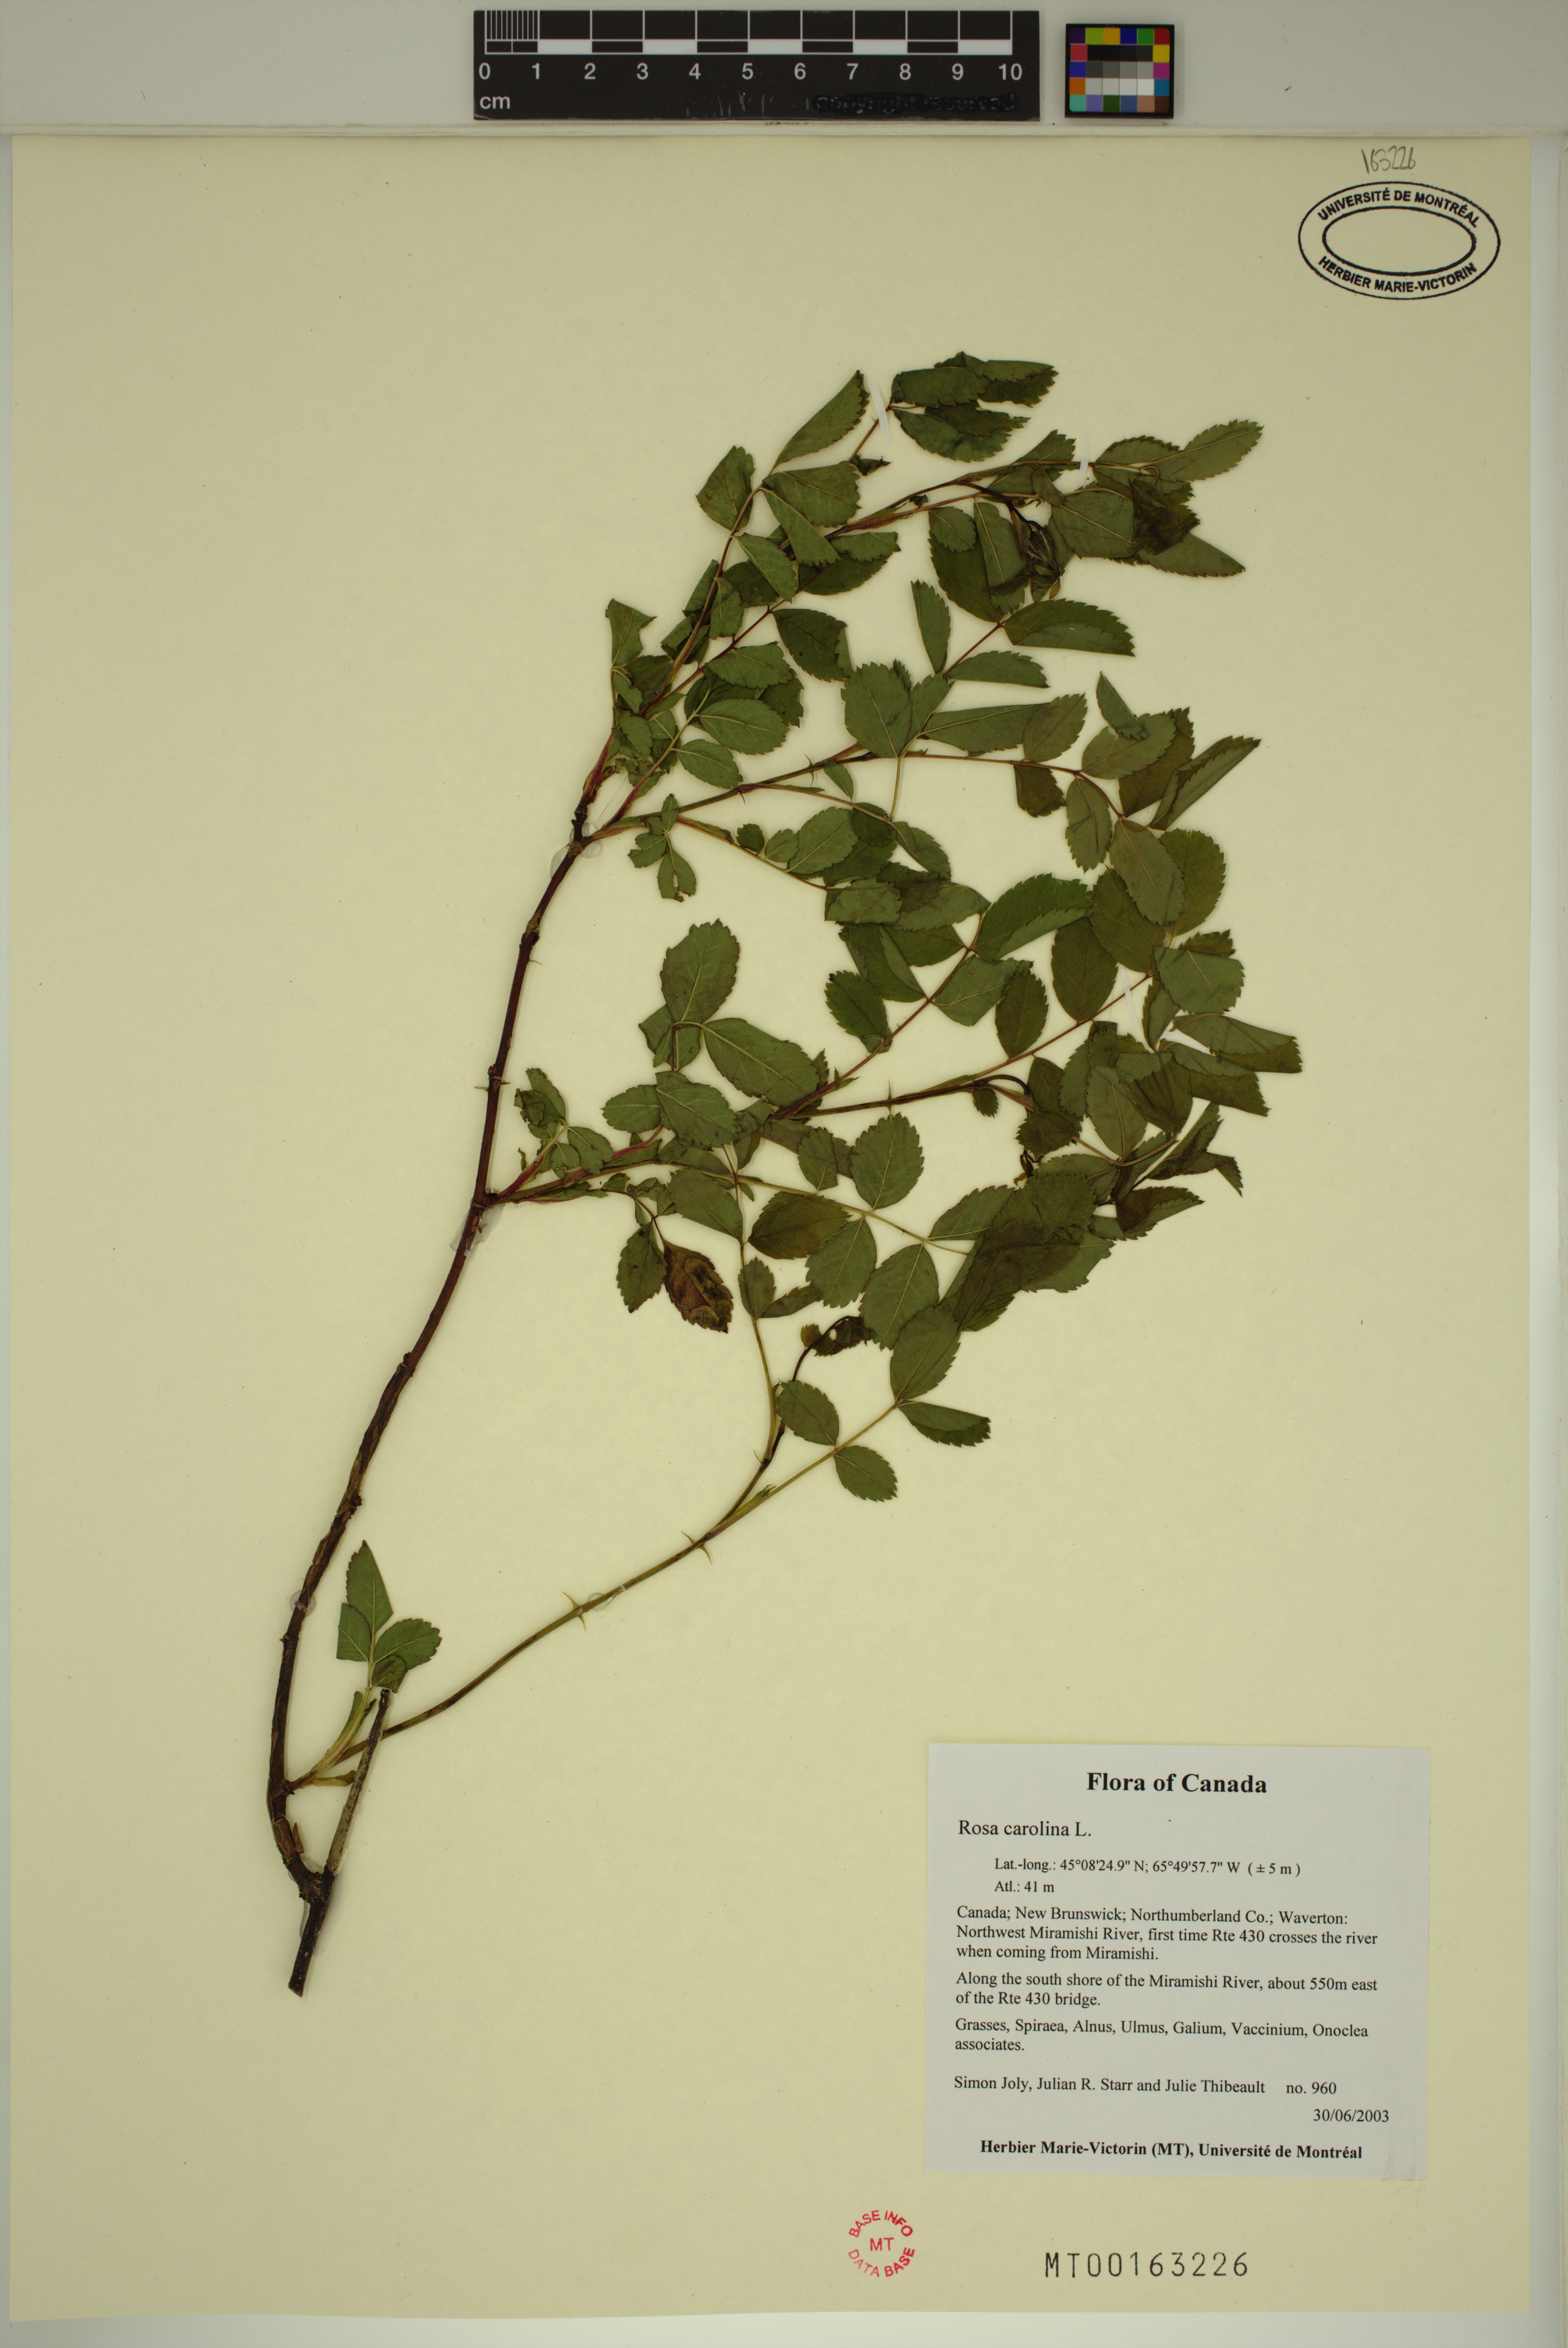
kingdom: Plantae
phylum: Tracheophyta
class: Magnoliopsida
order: Rosales
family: Rosaceae
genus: Rosa
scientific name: Rosa carolina
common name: Pasture rose
